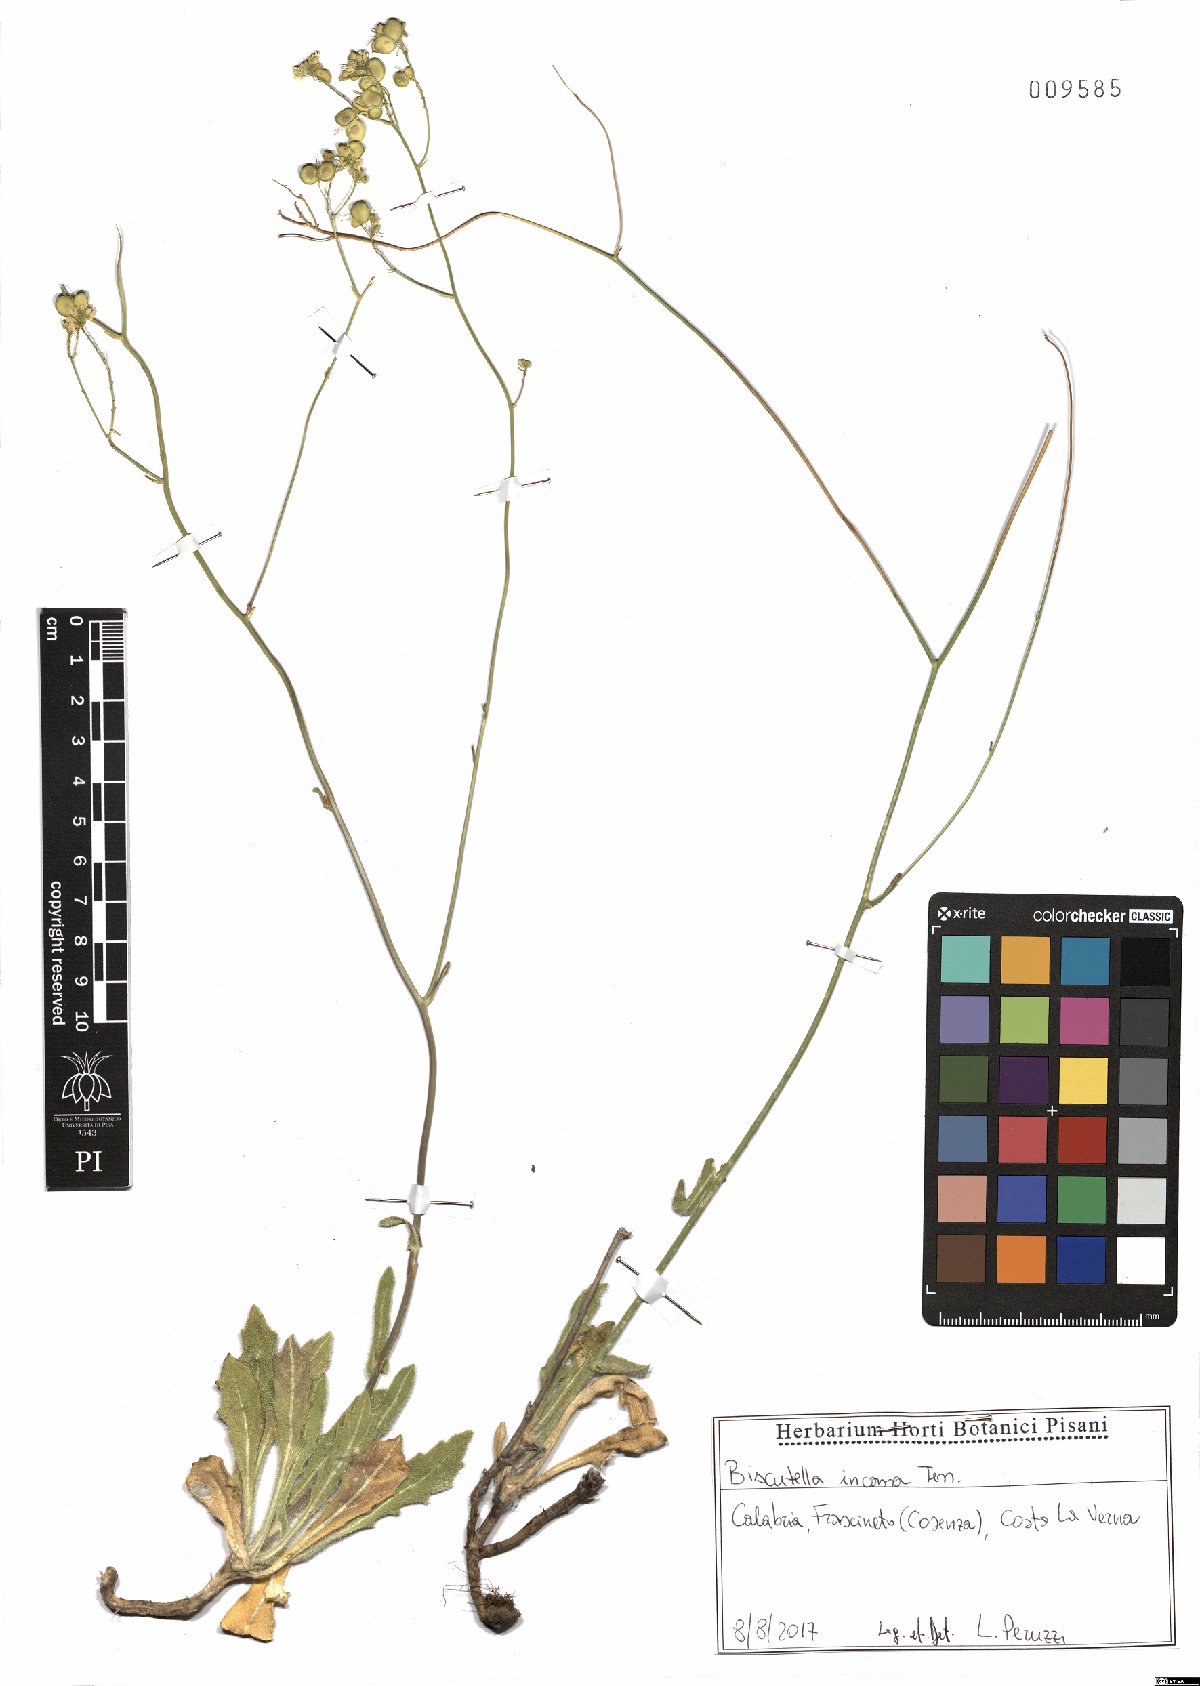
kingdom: Plantae
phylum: Tracheophyta
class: Magnoliopsida
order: Brassicales
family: Brassicaceae
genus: Biscutella
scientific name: Biscutella incana
